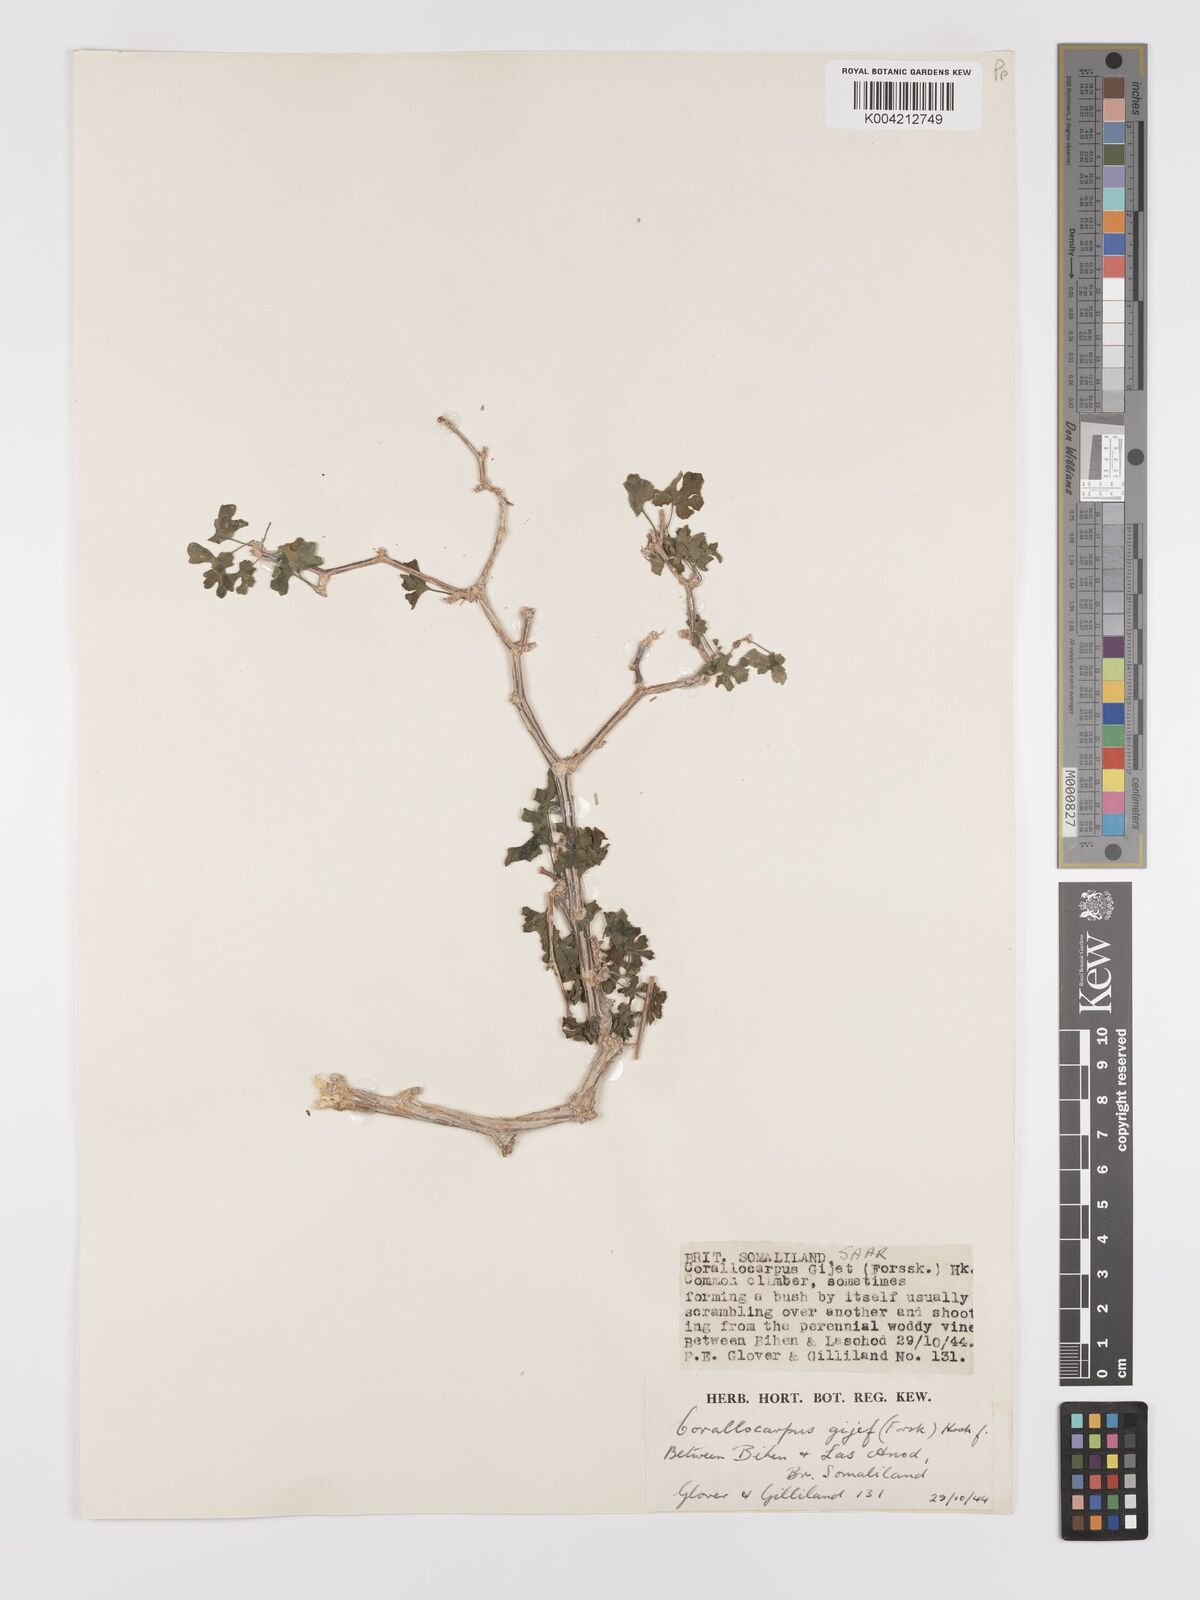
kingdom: Plantae
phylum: Tracheophyta
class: Magnoliopsida
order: Cucurbitales
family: Cucurbitaceae
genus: Corallocarpus
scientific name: Corallocarpus glomeruliflorus
